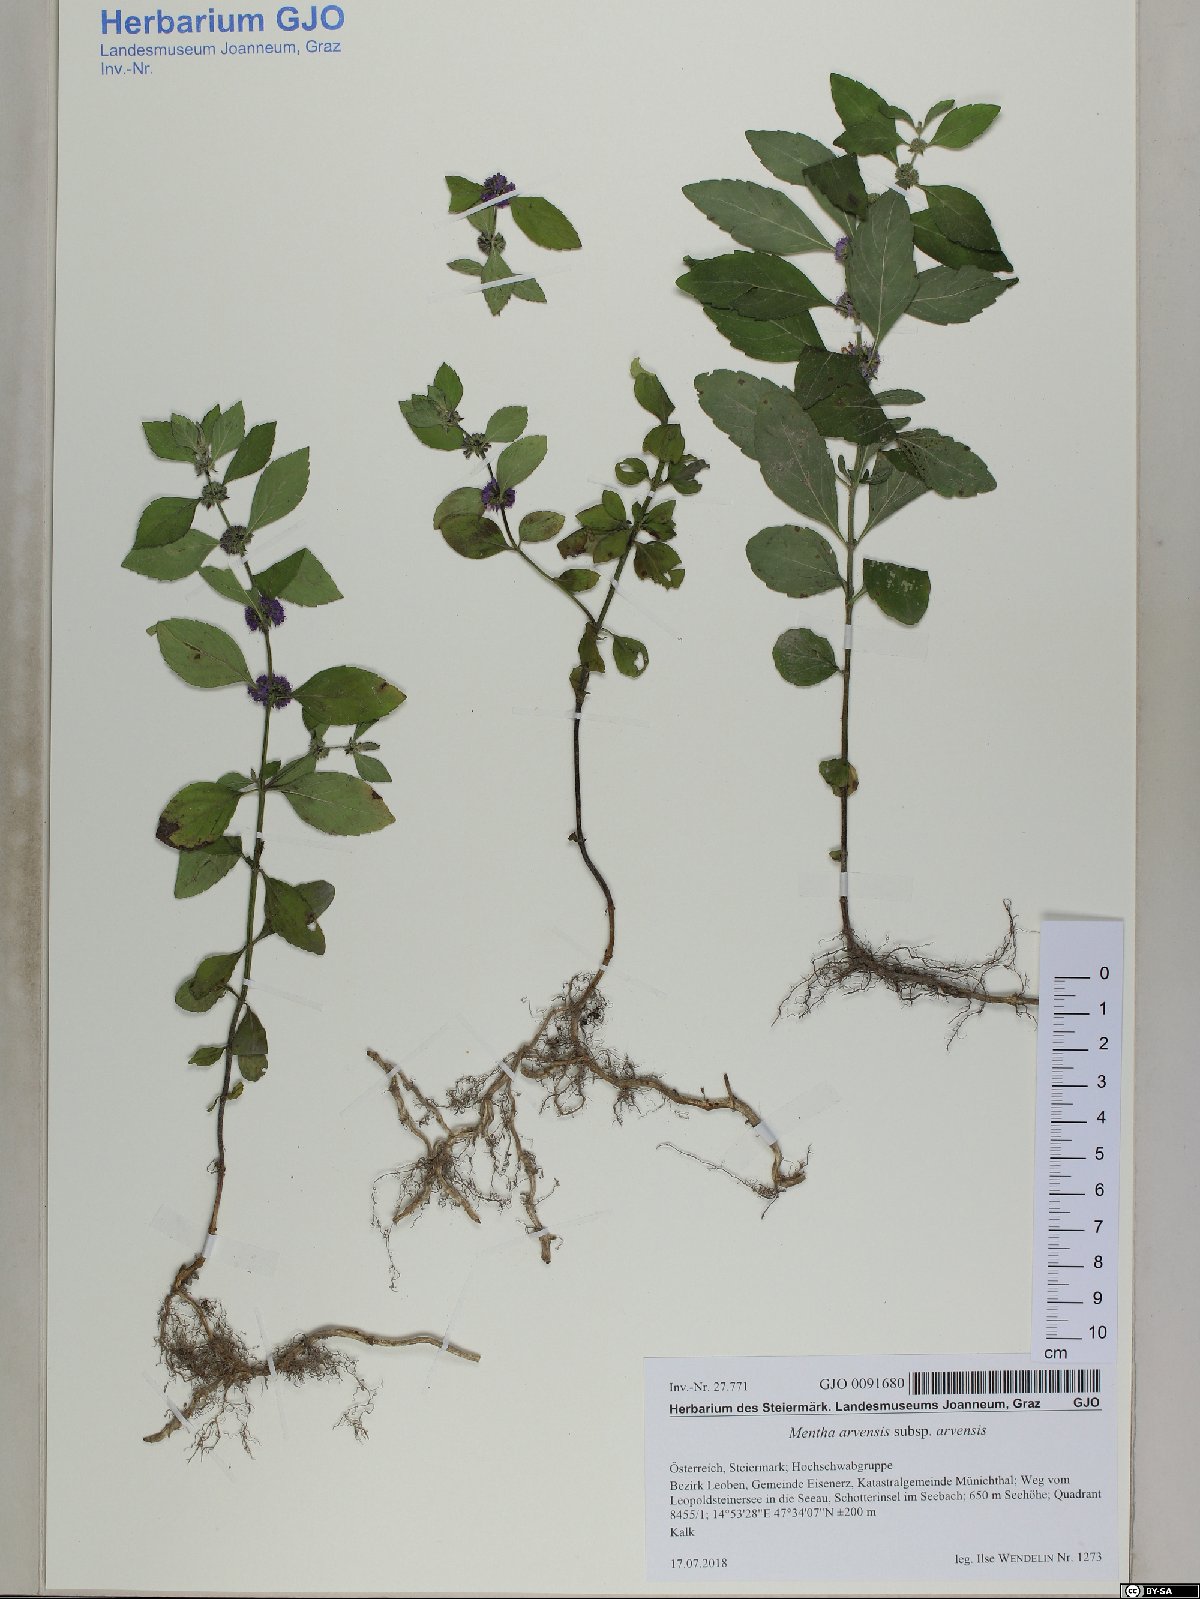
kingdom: Plantae
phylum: Tracheophyta
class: Magnoliopsida
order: Lamiales
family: Lamiaceae
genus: Mentha
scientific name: Mentha arvensis
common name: Corn mint
